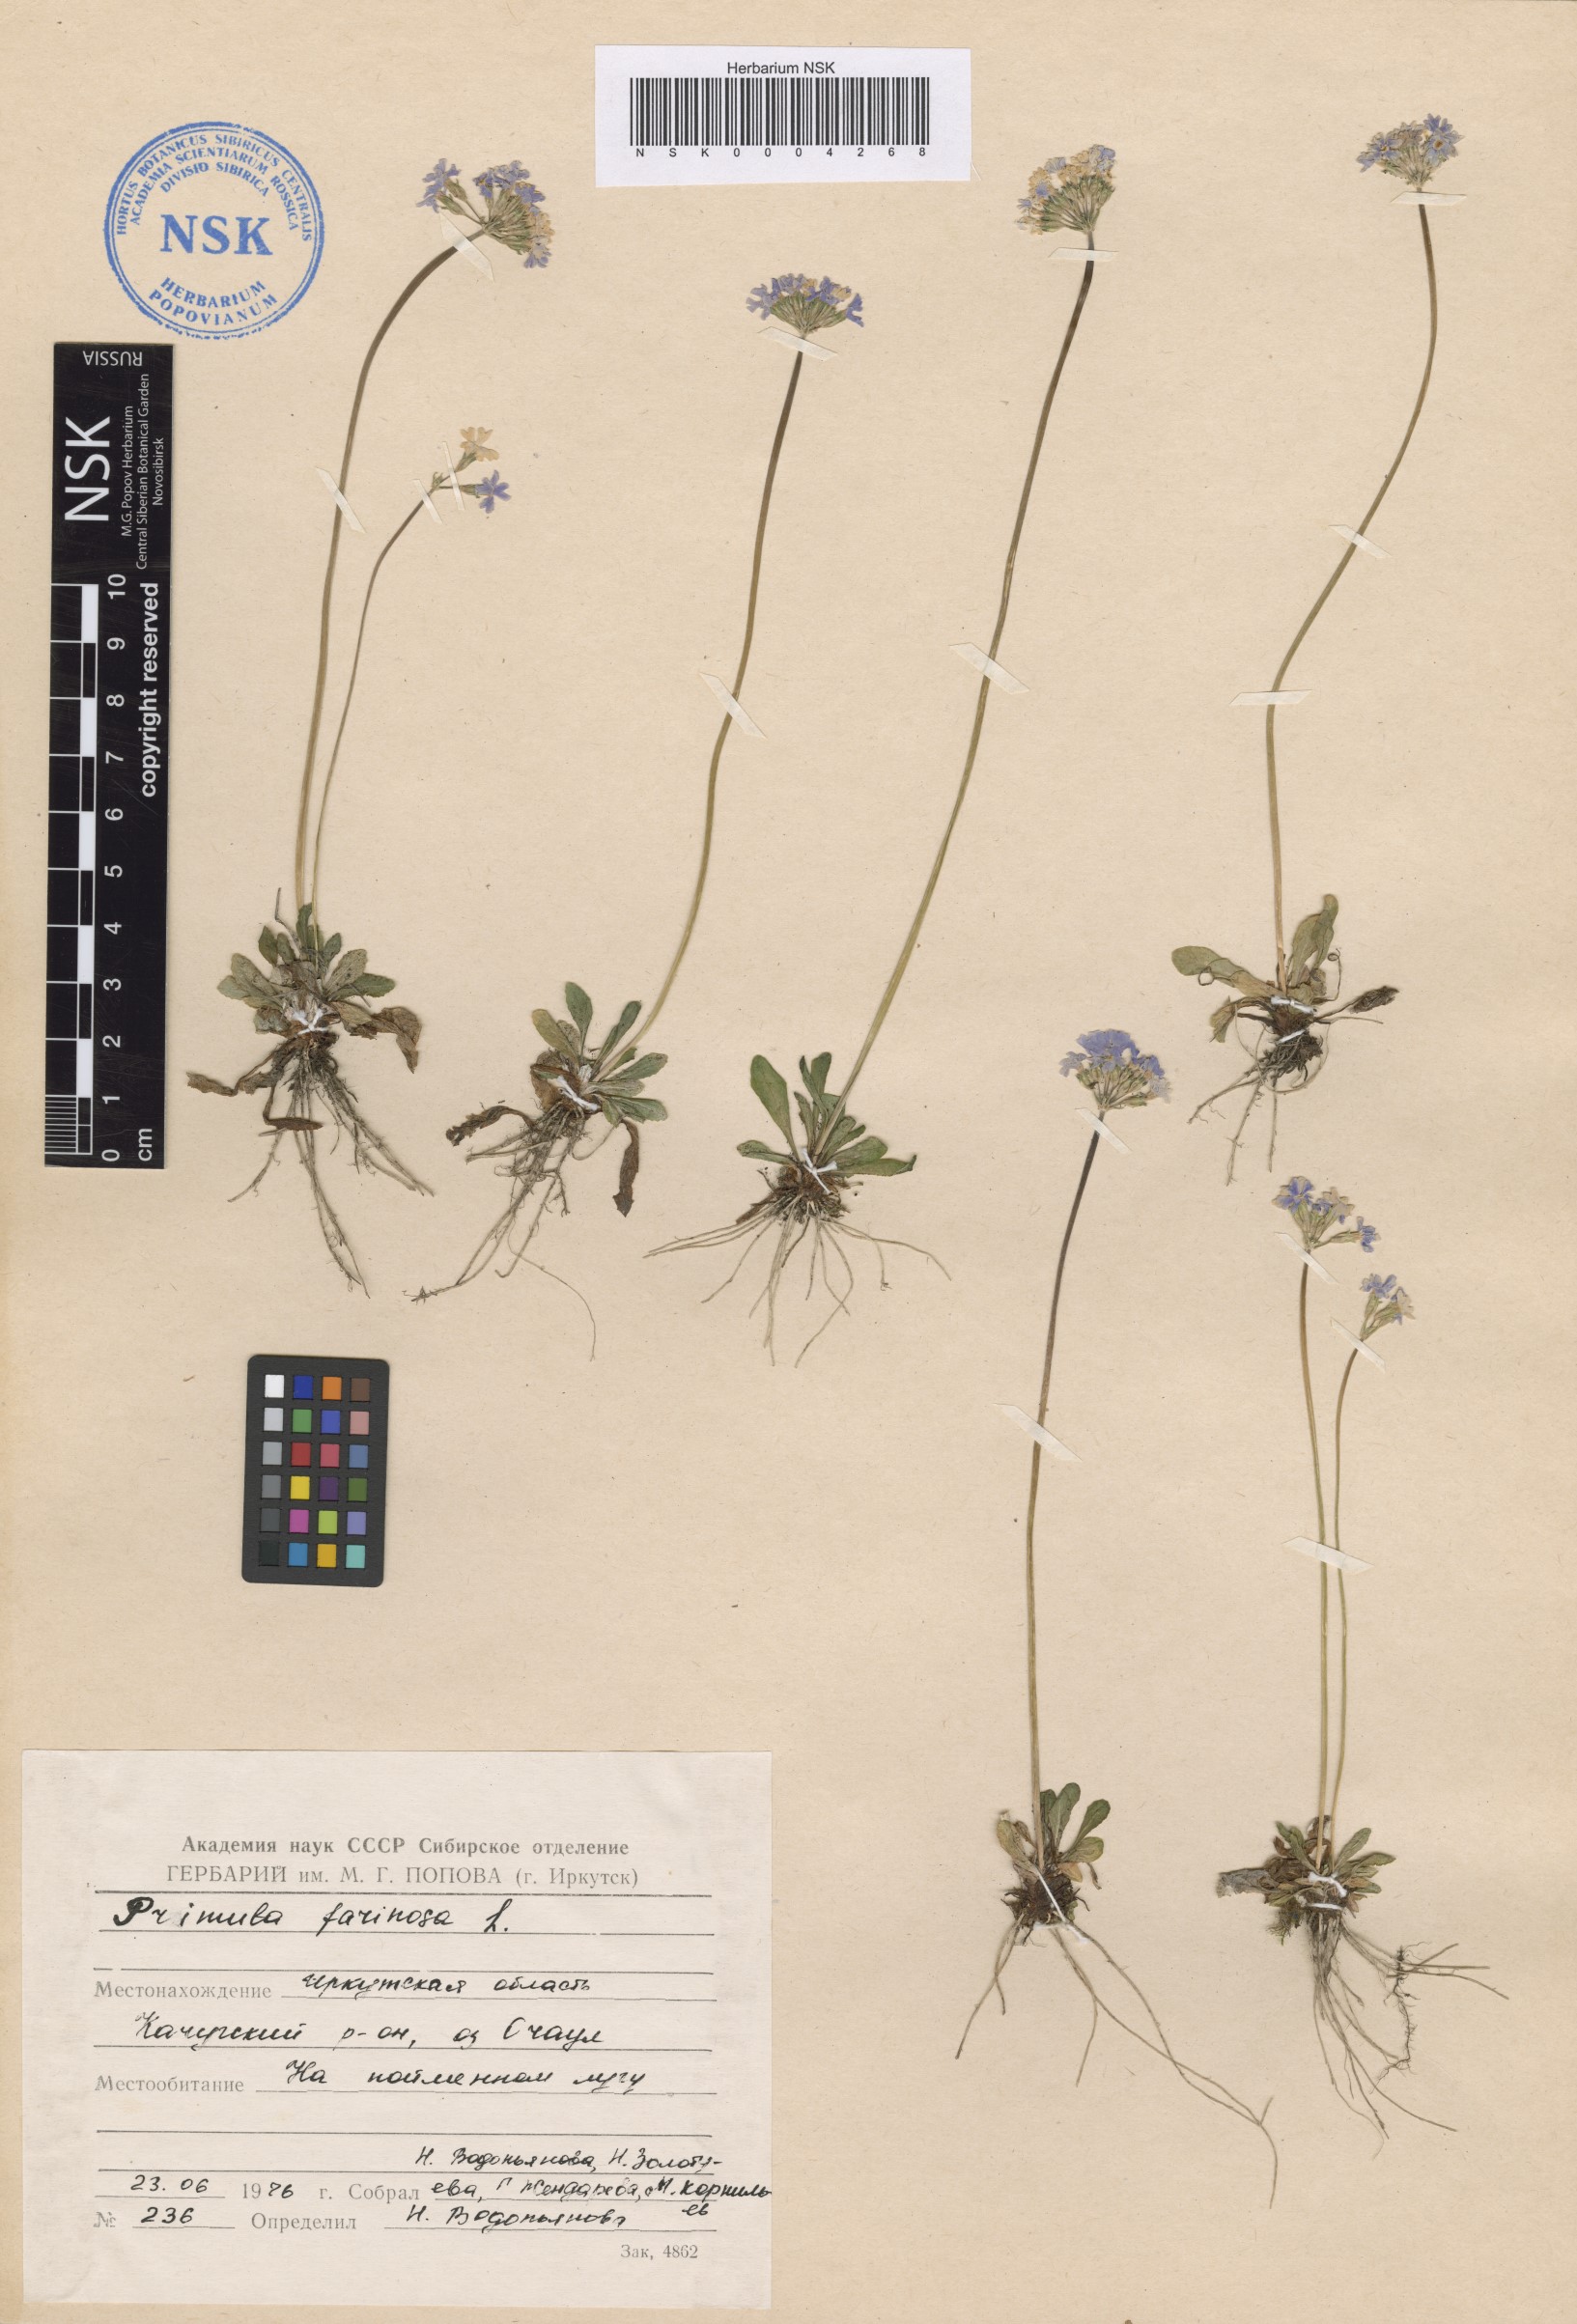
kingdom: Plantae
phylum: Tracheophyta
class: Magnoliopsida
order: Ericales
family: Primulaceae
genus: Primula
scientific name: Primula farinosa
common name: Bird's-eye primrose
